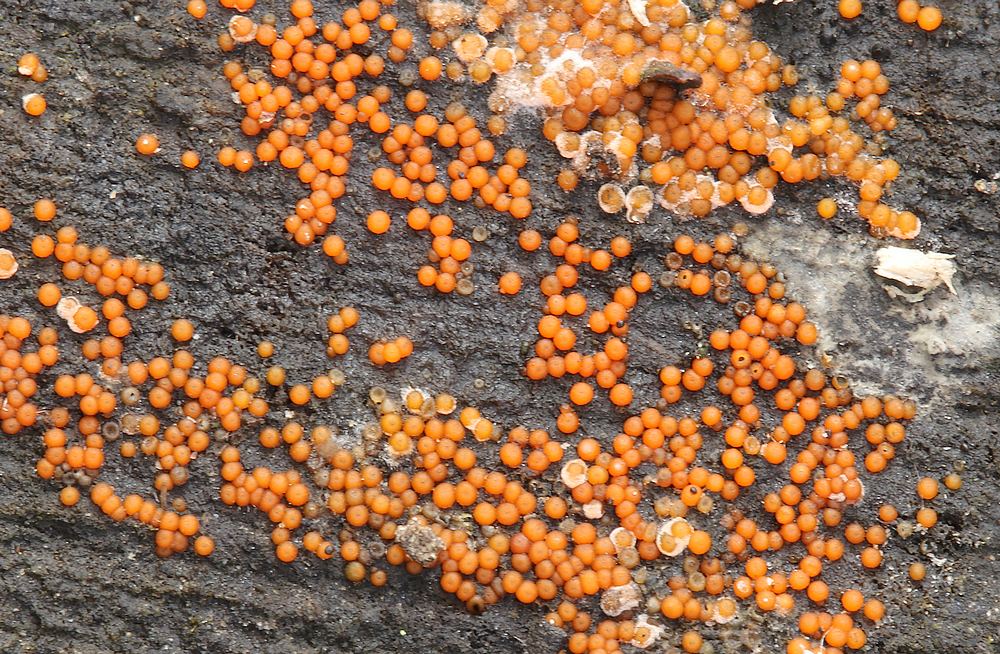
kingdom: Fungi
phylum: Ascomycota
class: Sordariomycetes
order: Hypocreales
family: Nectriaceae
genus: Hydropisphaera
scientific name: Hydropisphaera peziza
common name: skålformet gyldenkerne
